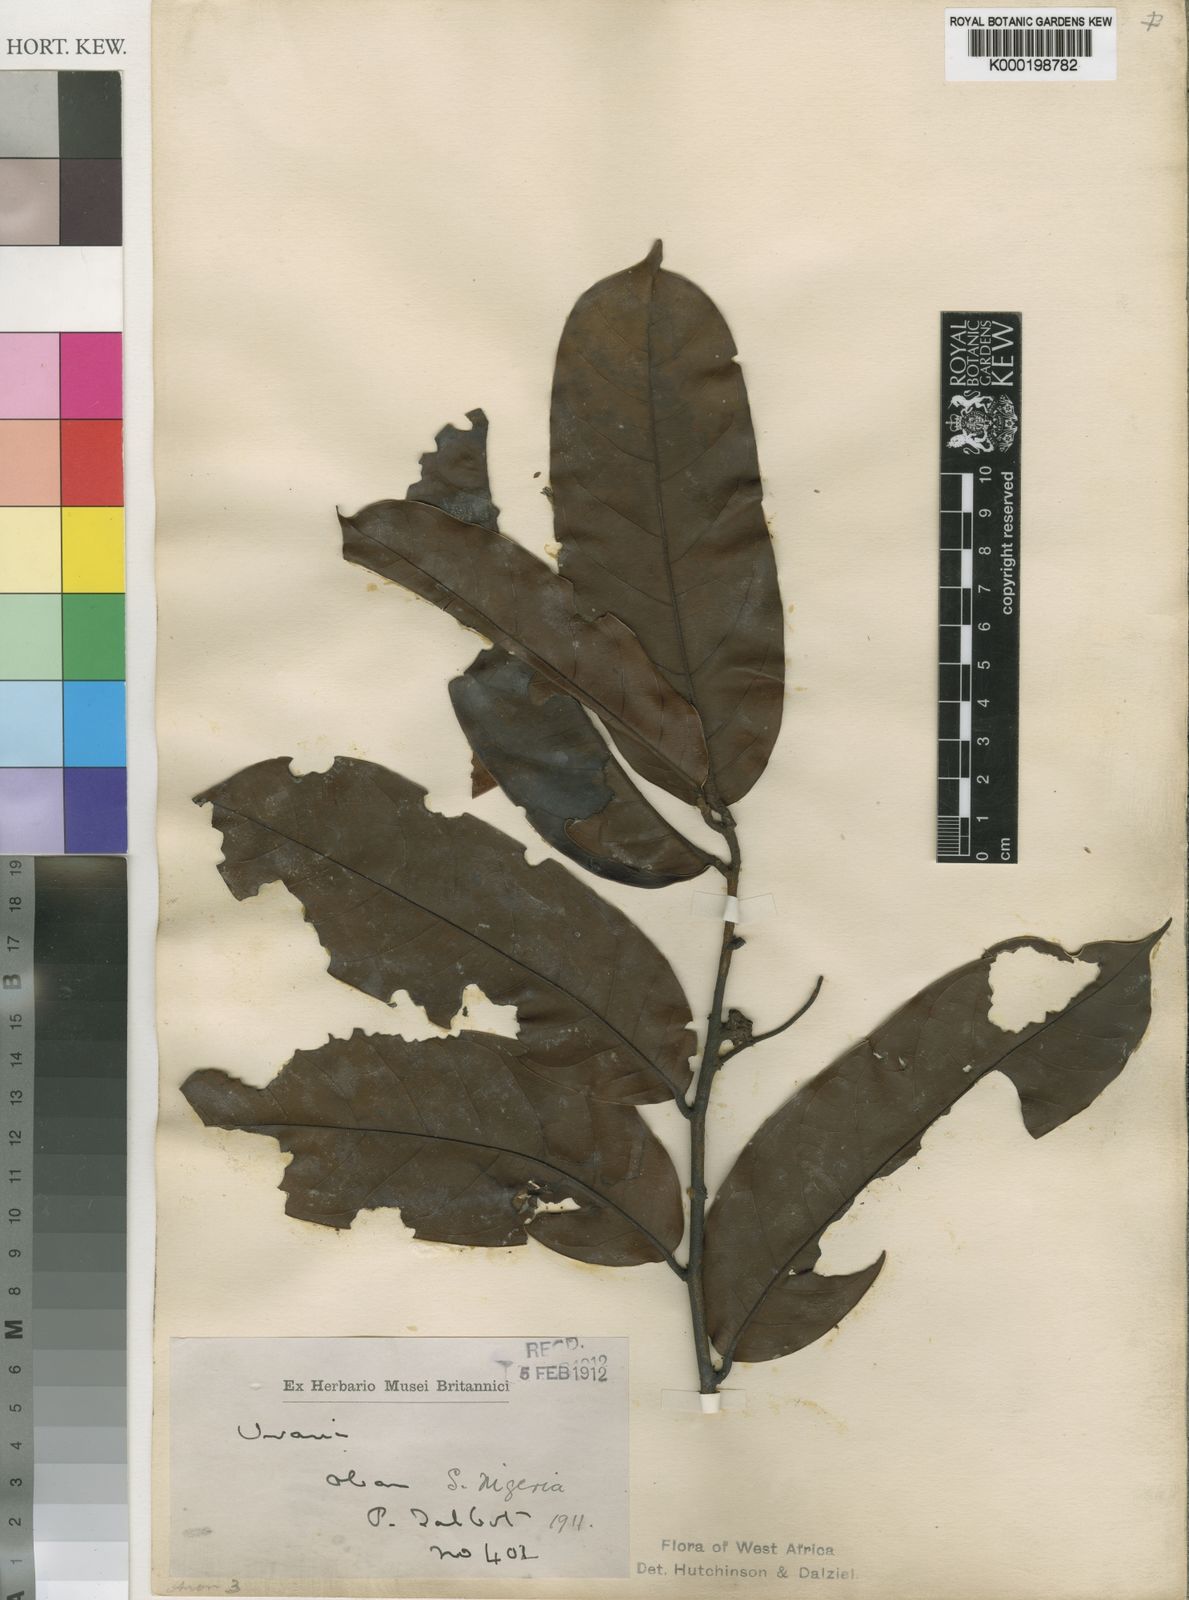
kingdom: Plantae
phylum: Tracheophyta
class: Magnoliopsida
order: Magnoliales
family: Annonaceae
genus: Uvaria
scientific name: Uvaria obanensis
